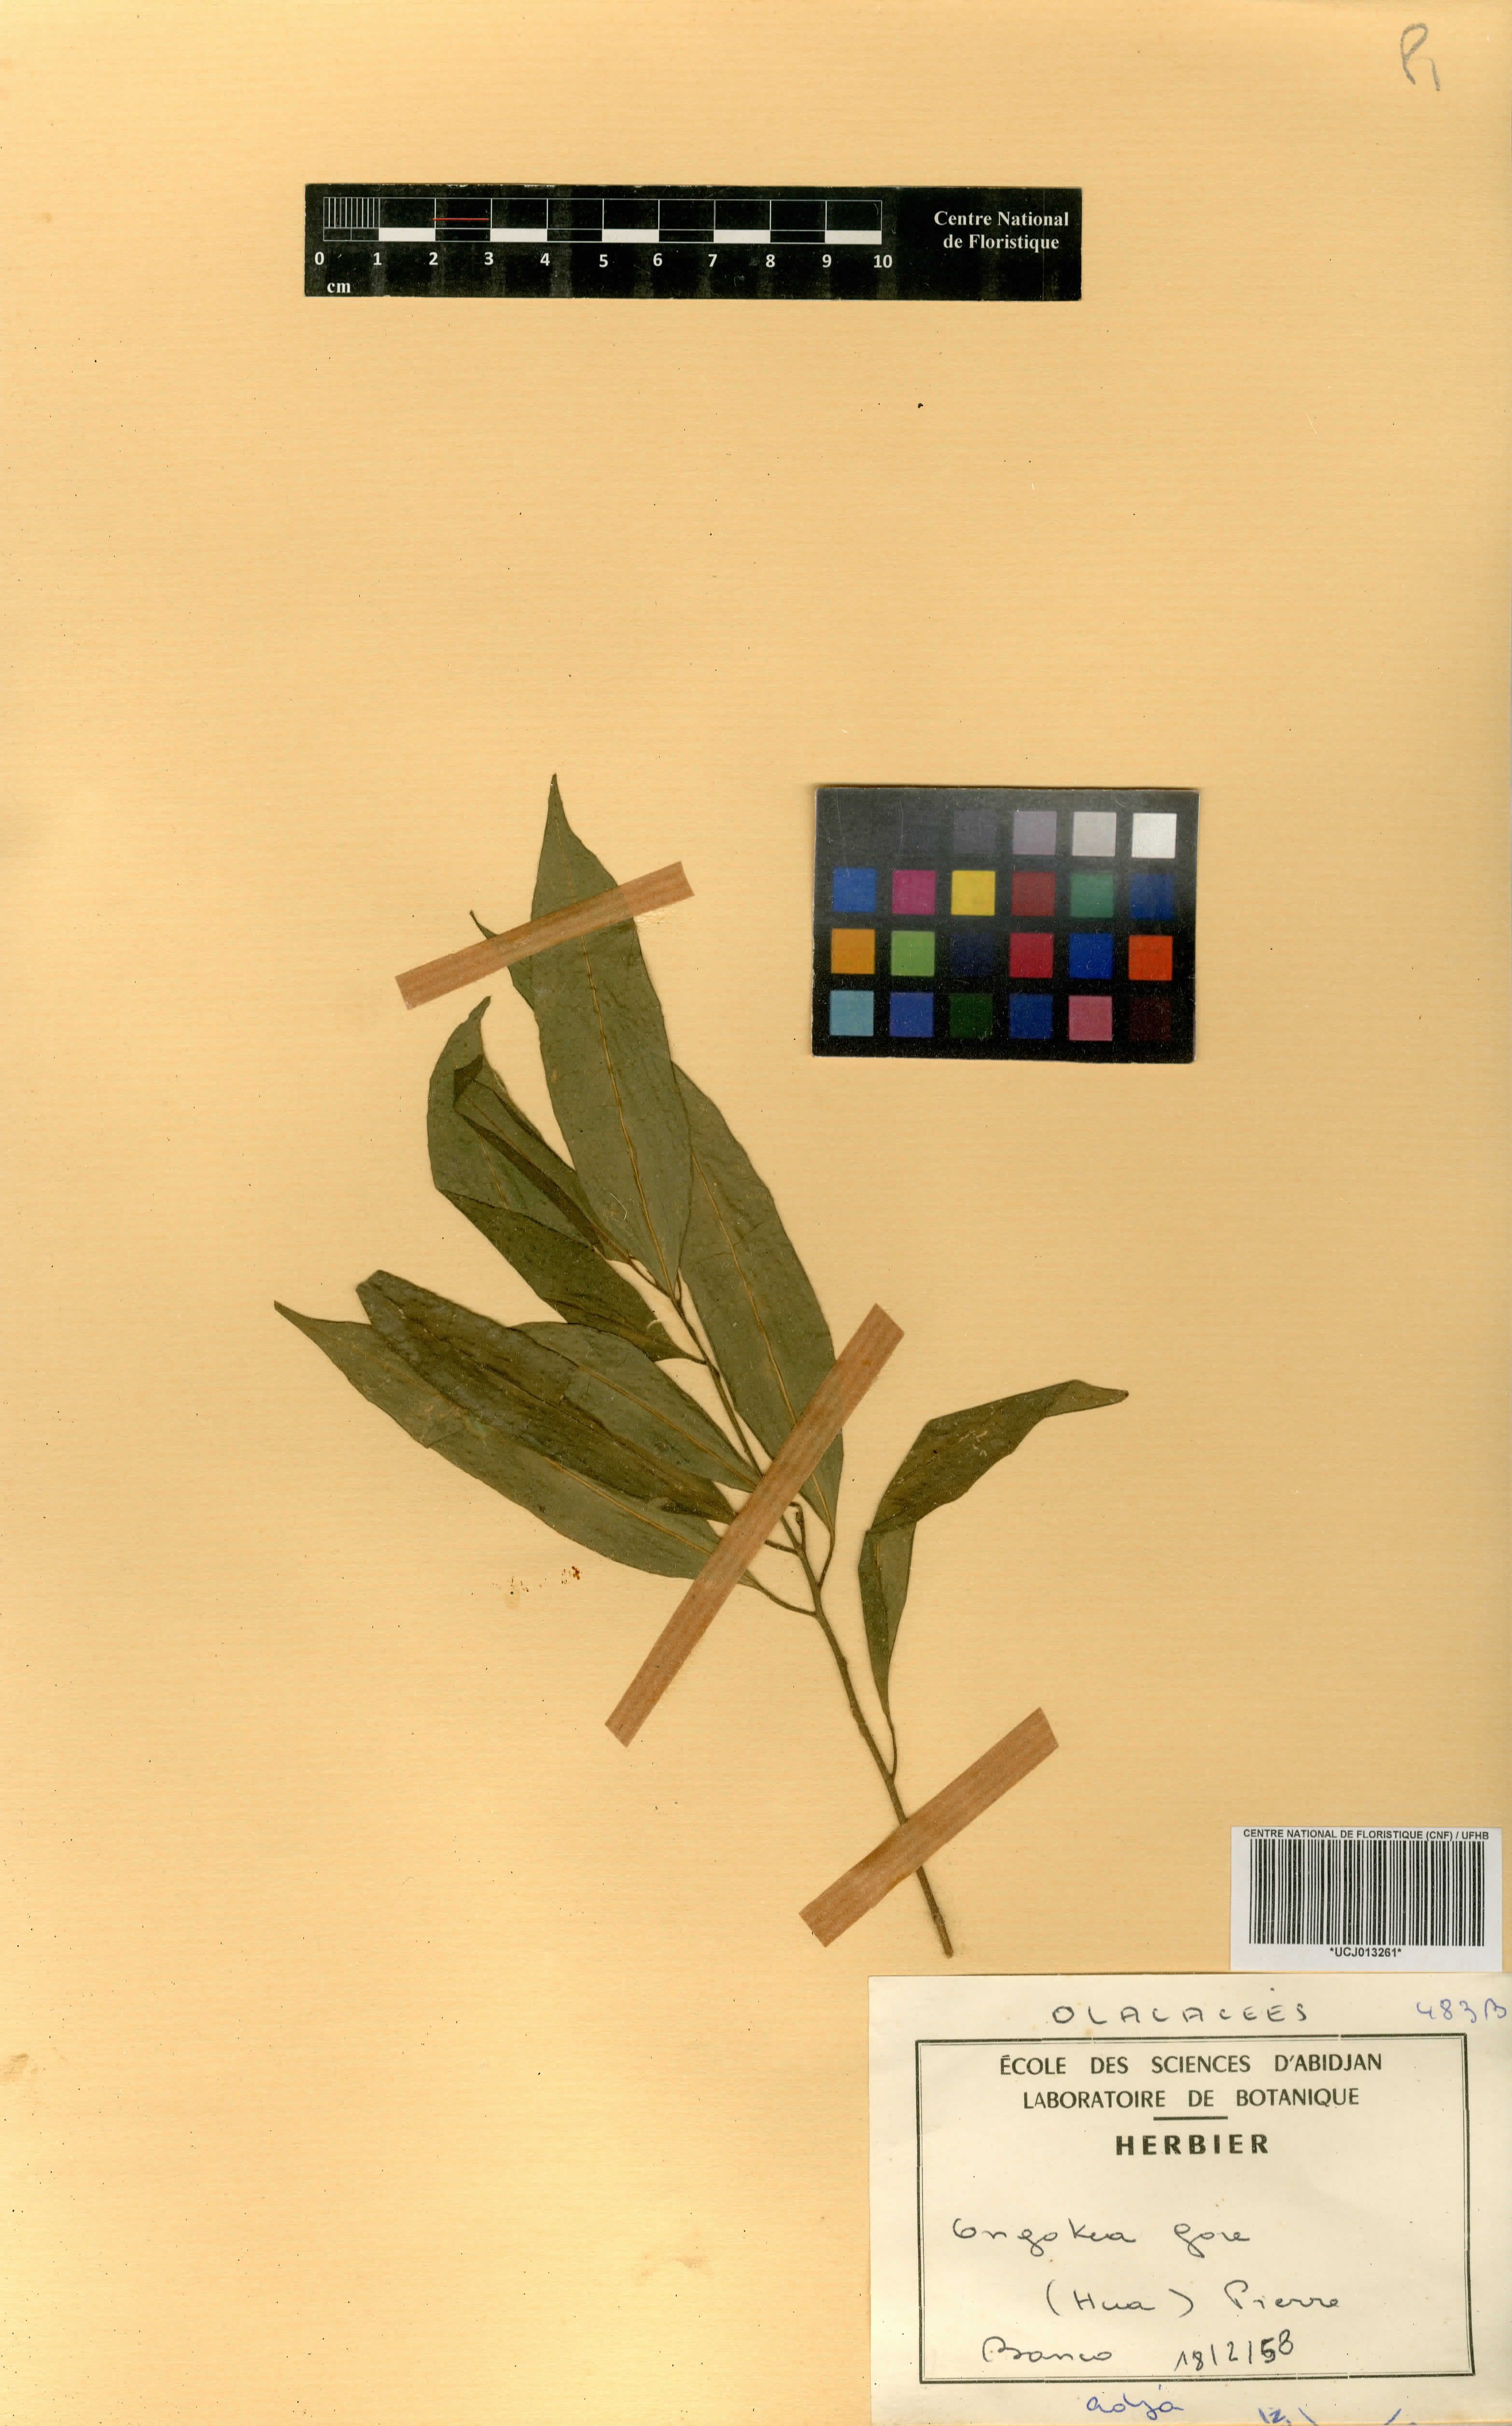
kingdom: Plantae
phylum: Tracheophyta
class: Magnoliopsida
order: Santalales
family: Aptandraceae
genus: Ongokea
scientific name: Ongokea gore
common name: Boleko-nut
